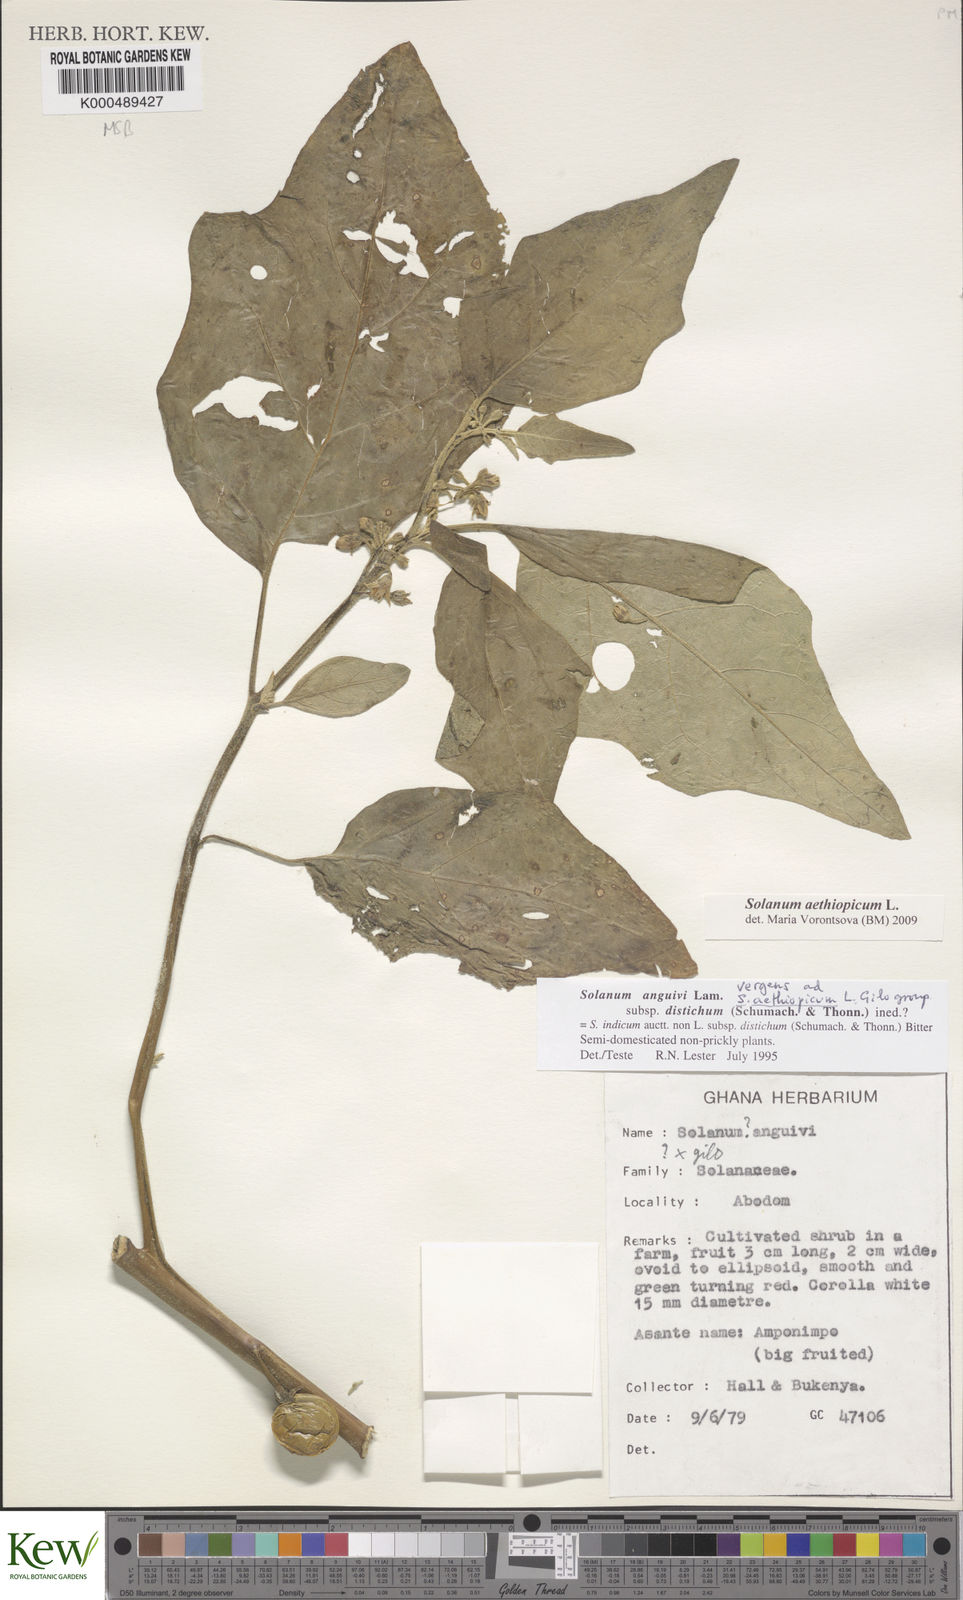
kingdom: Plantae
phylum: Tracheophyta
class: Magnoliopsida
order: Solanales
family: Solanaceae
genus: Solanum
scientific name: Solanum anguivi
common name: Forest bitterberry
